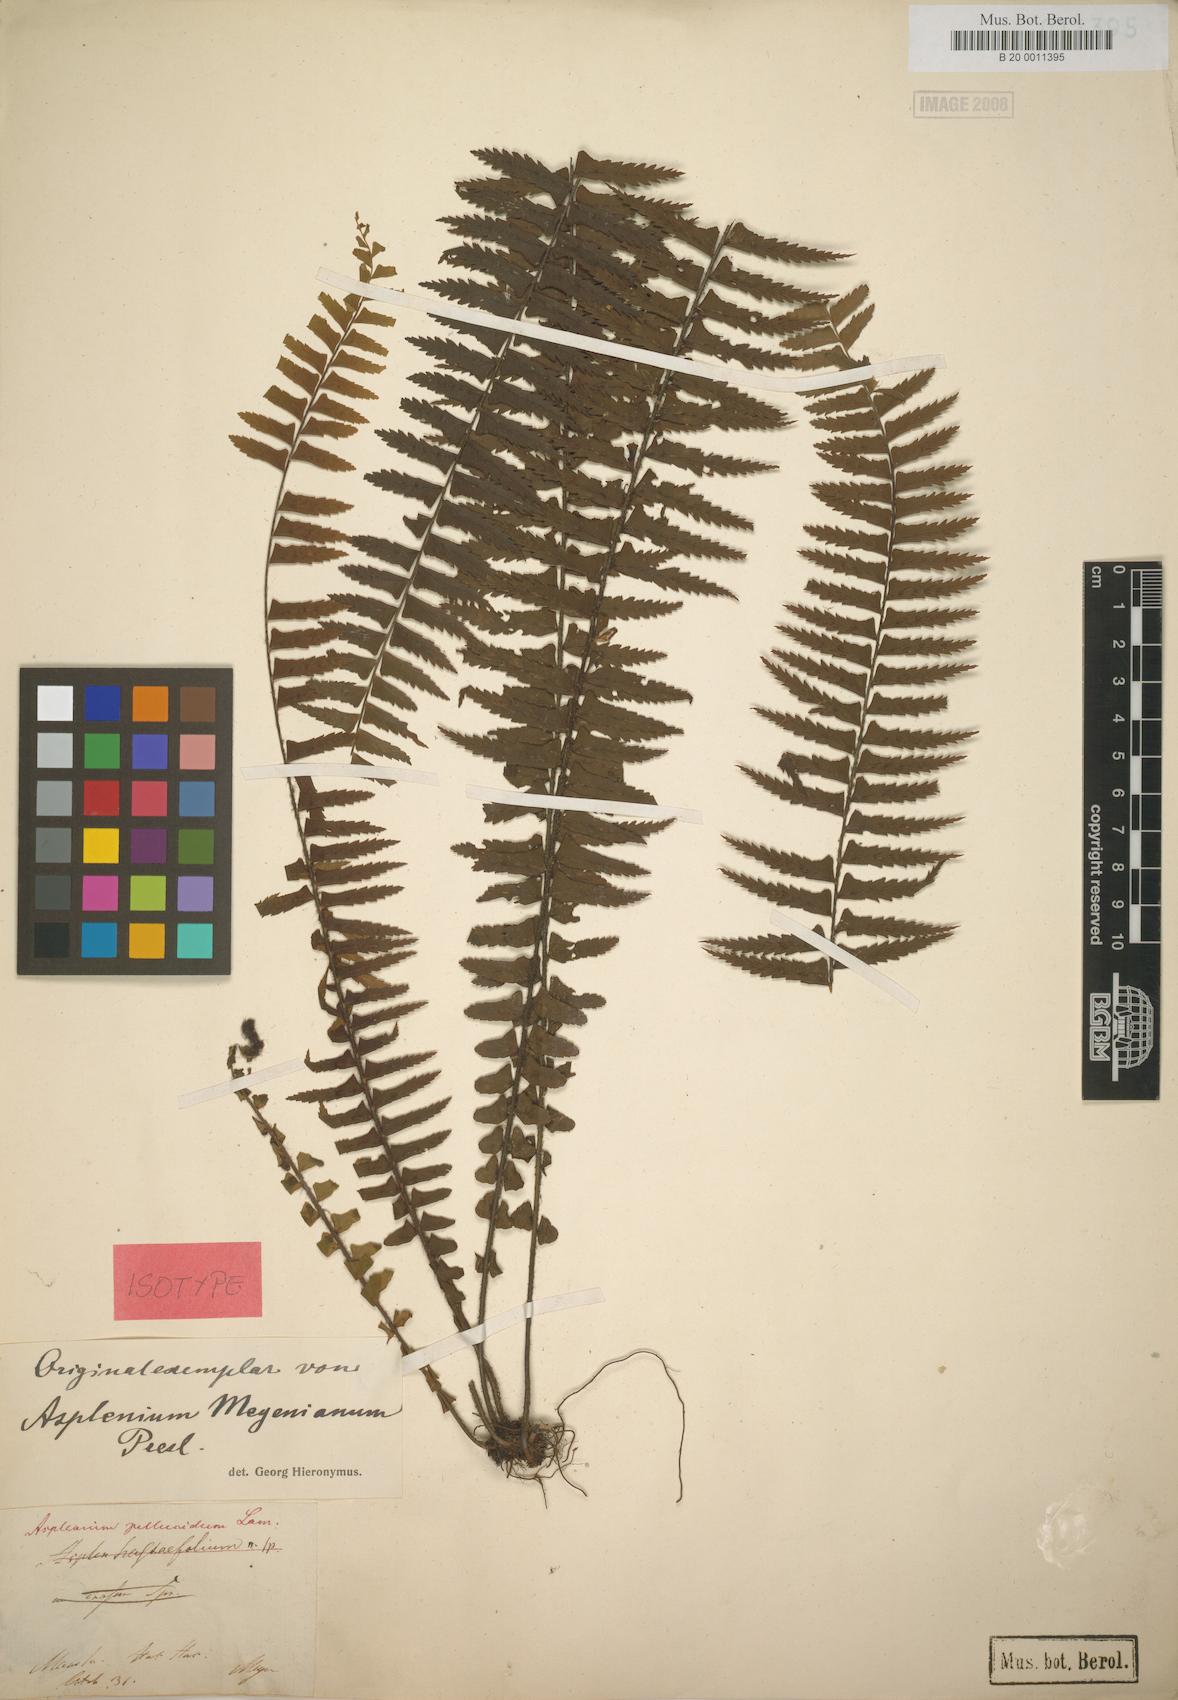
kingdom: Plantae
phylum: Tracheophyta
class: Polypodiopsida
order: Polypodiales
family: Aspleniaceae
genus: Asplenium
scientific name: Asplenium pellucidum
